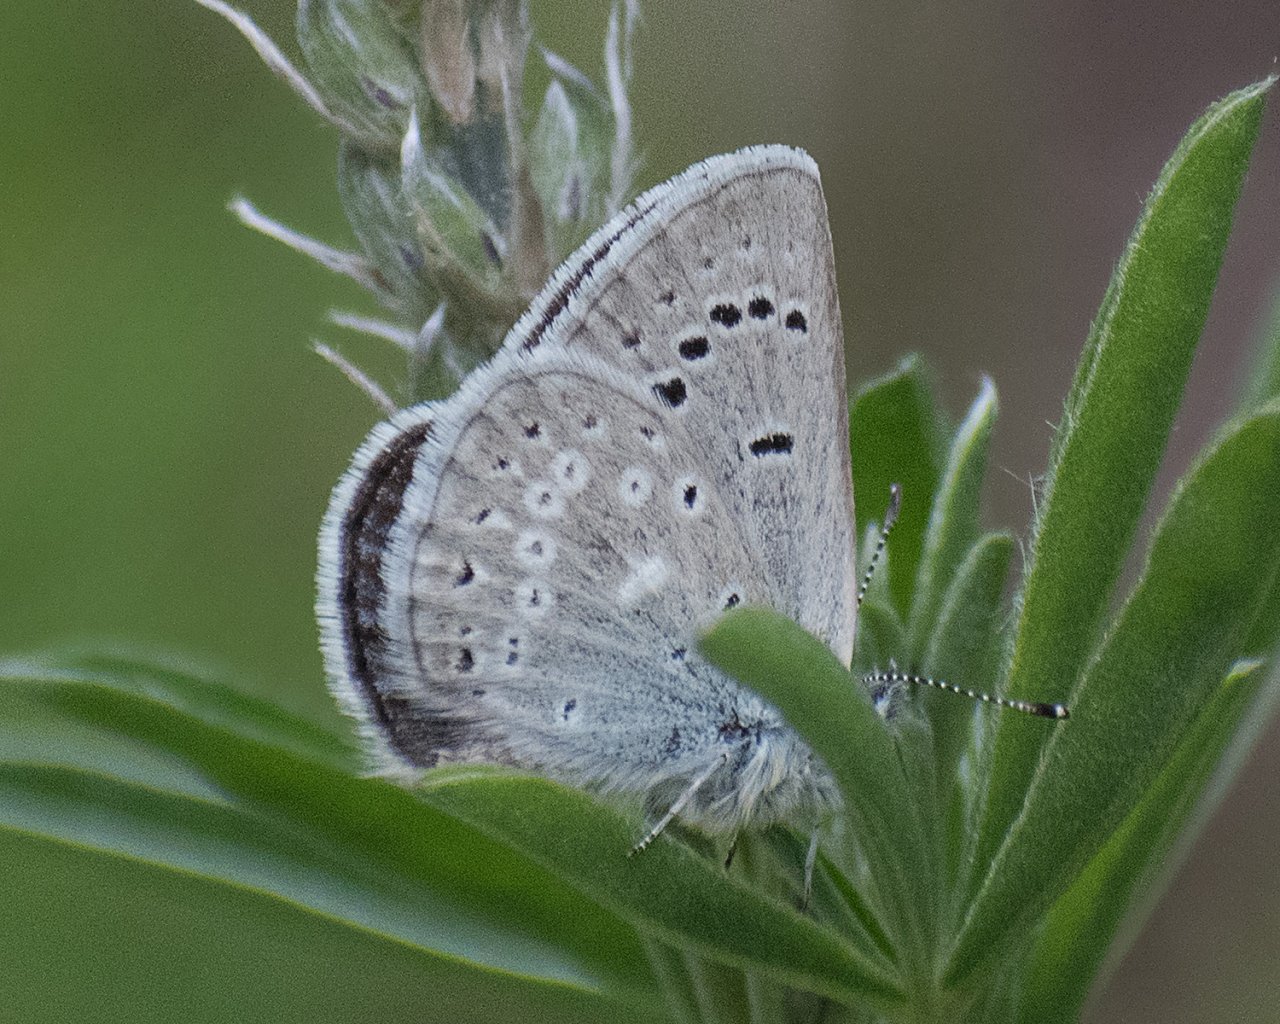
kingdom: Animalia
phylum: Arthropoda
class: Insecta
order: Lepidoptera
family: Lycaenidae
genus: Icaricia
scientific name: Icaricia icarioides
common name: Boisduval's Blue
